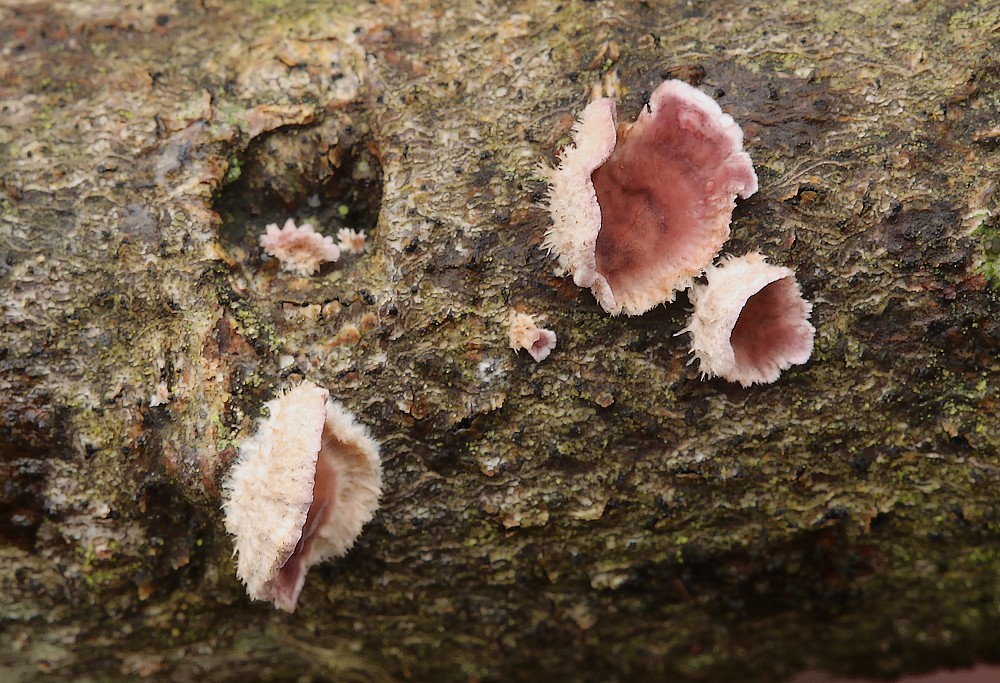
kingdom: Fungi
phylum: Basidiomycota
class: Agaricomycetes
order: Agaricales
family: Cyphellaceae
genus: Chondrostereum
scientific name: Chondrostereum purpureum
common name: purpurlædersvamp
